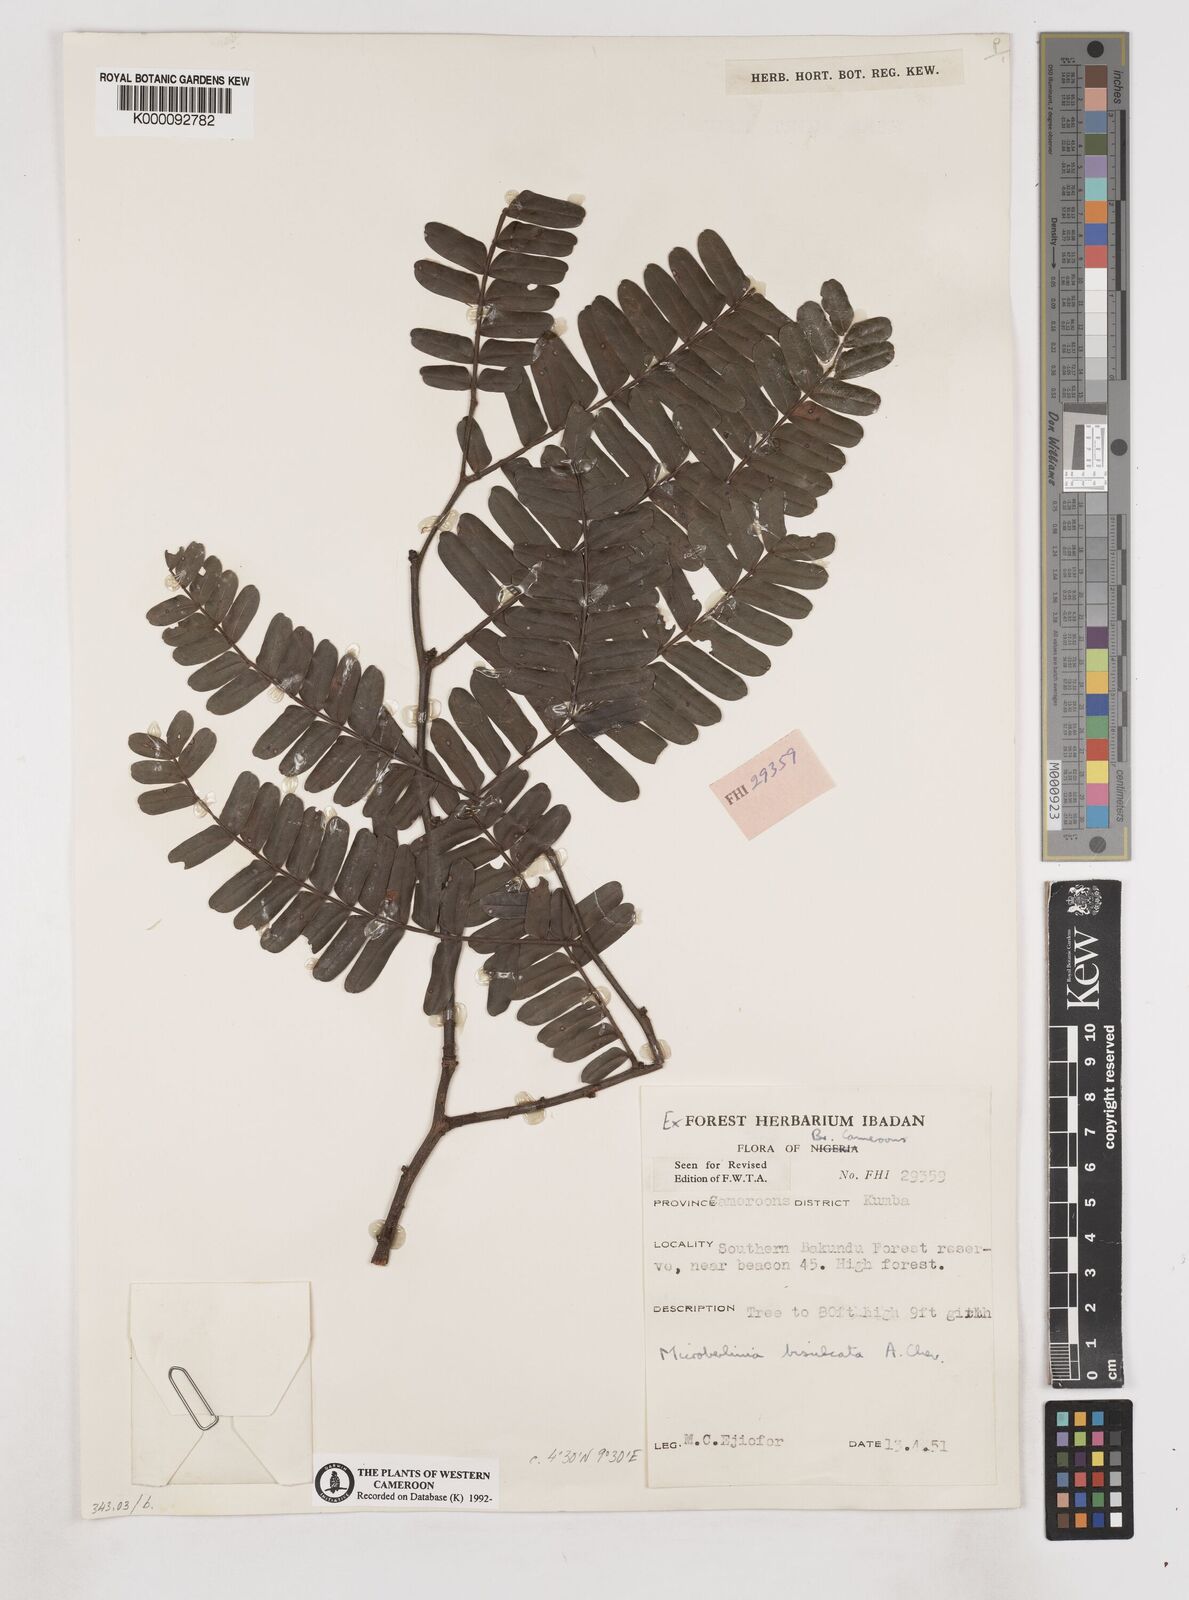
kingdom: Plantae
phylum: Tracheophyta
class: Magnoliopsida
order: Fabales
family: Fabaceae
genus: Microberlinia
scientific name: Microberlinia bisulcata
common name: Zingana
